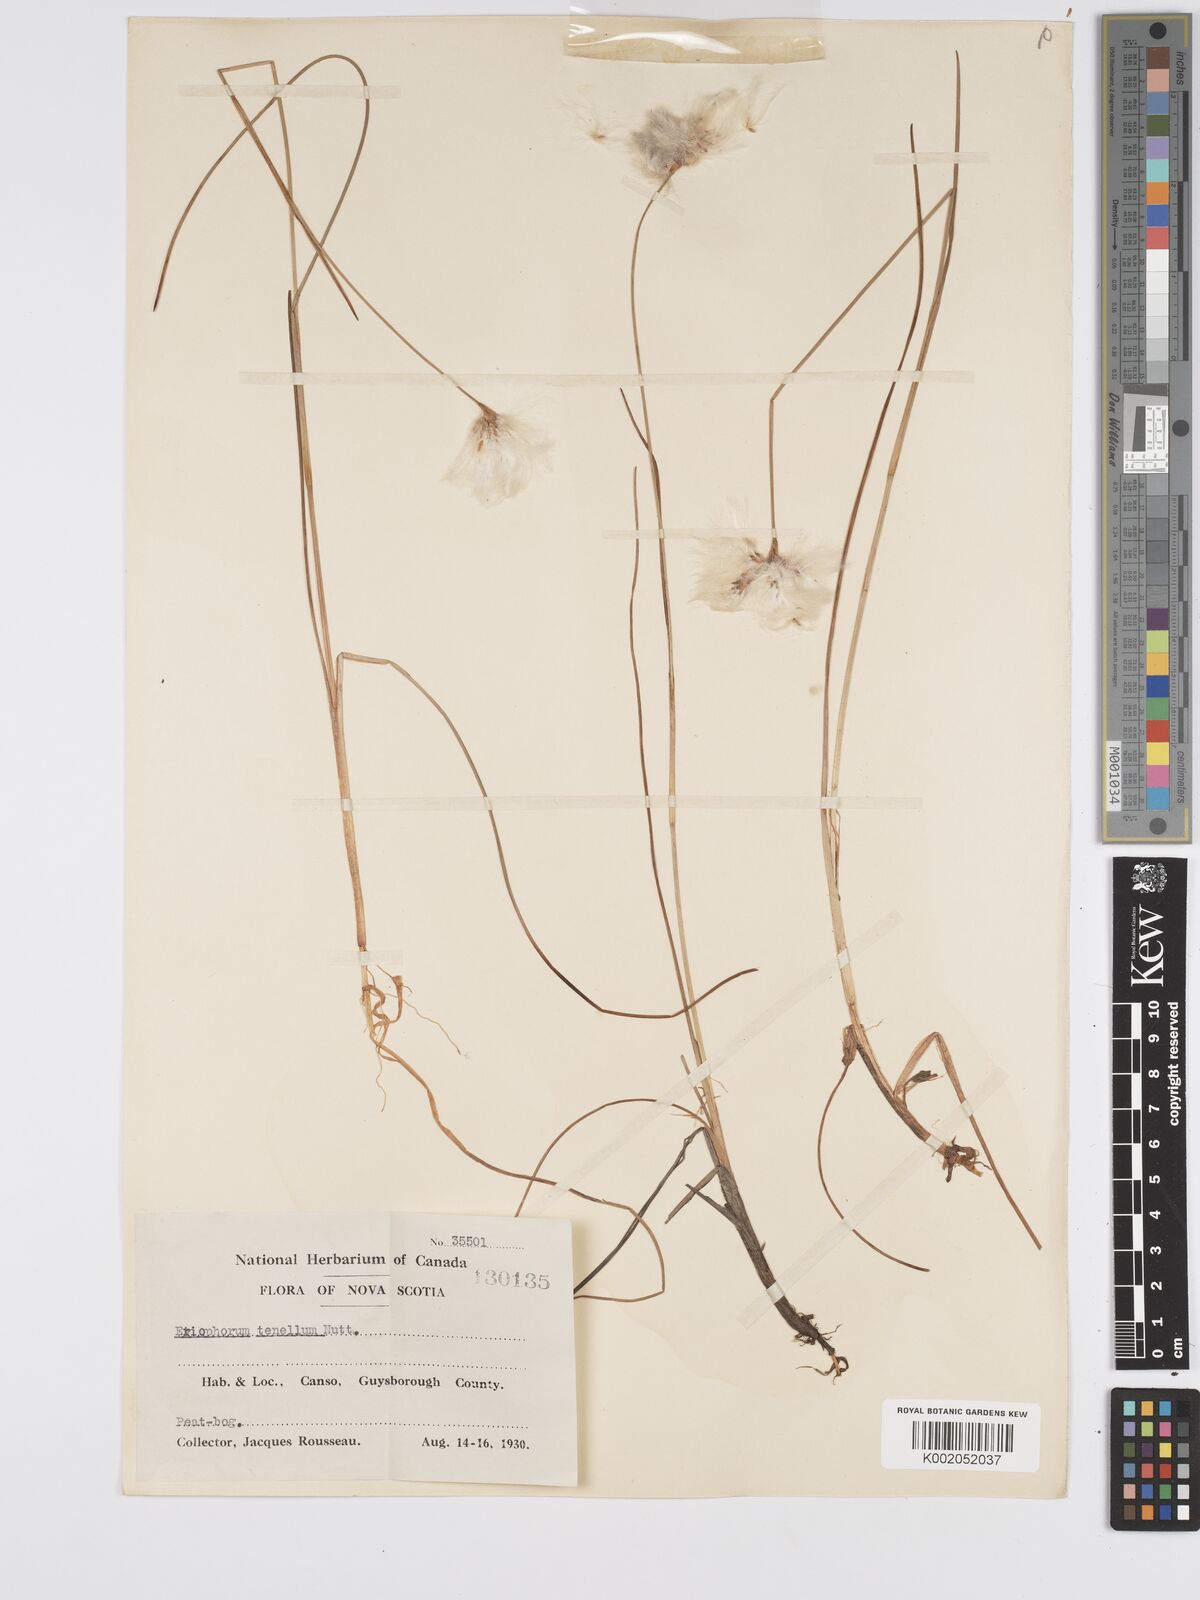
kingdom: Plantae
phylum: Tracheophyta
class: Liliopsida
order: Poales
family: Cyperaceae
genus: Eriophorum
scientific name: Eriophorum tenellum
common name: Few-nerved cottongrass
